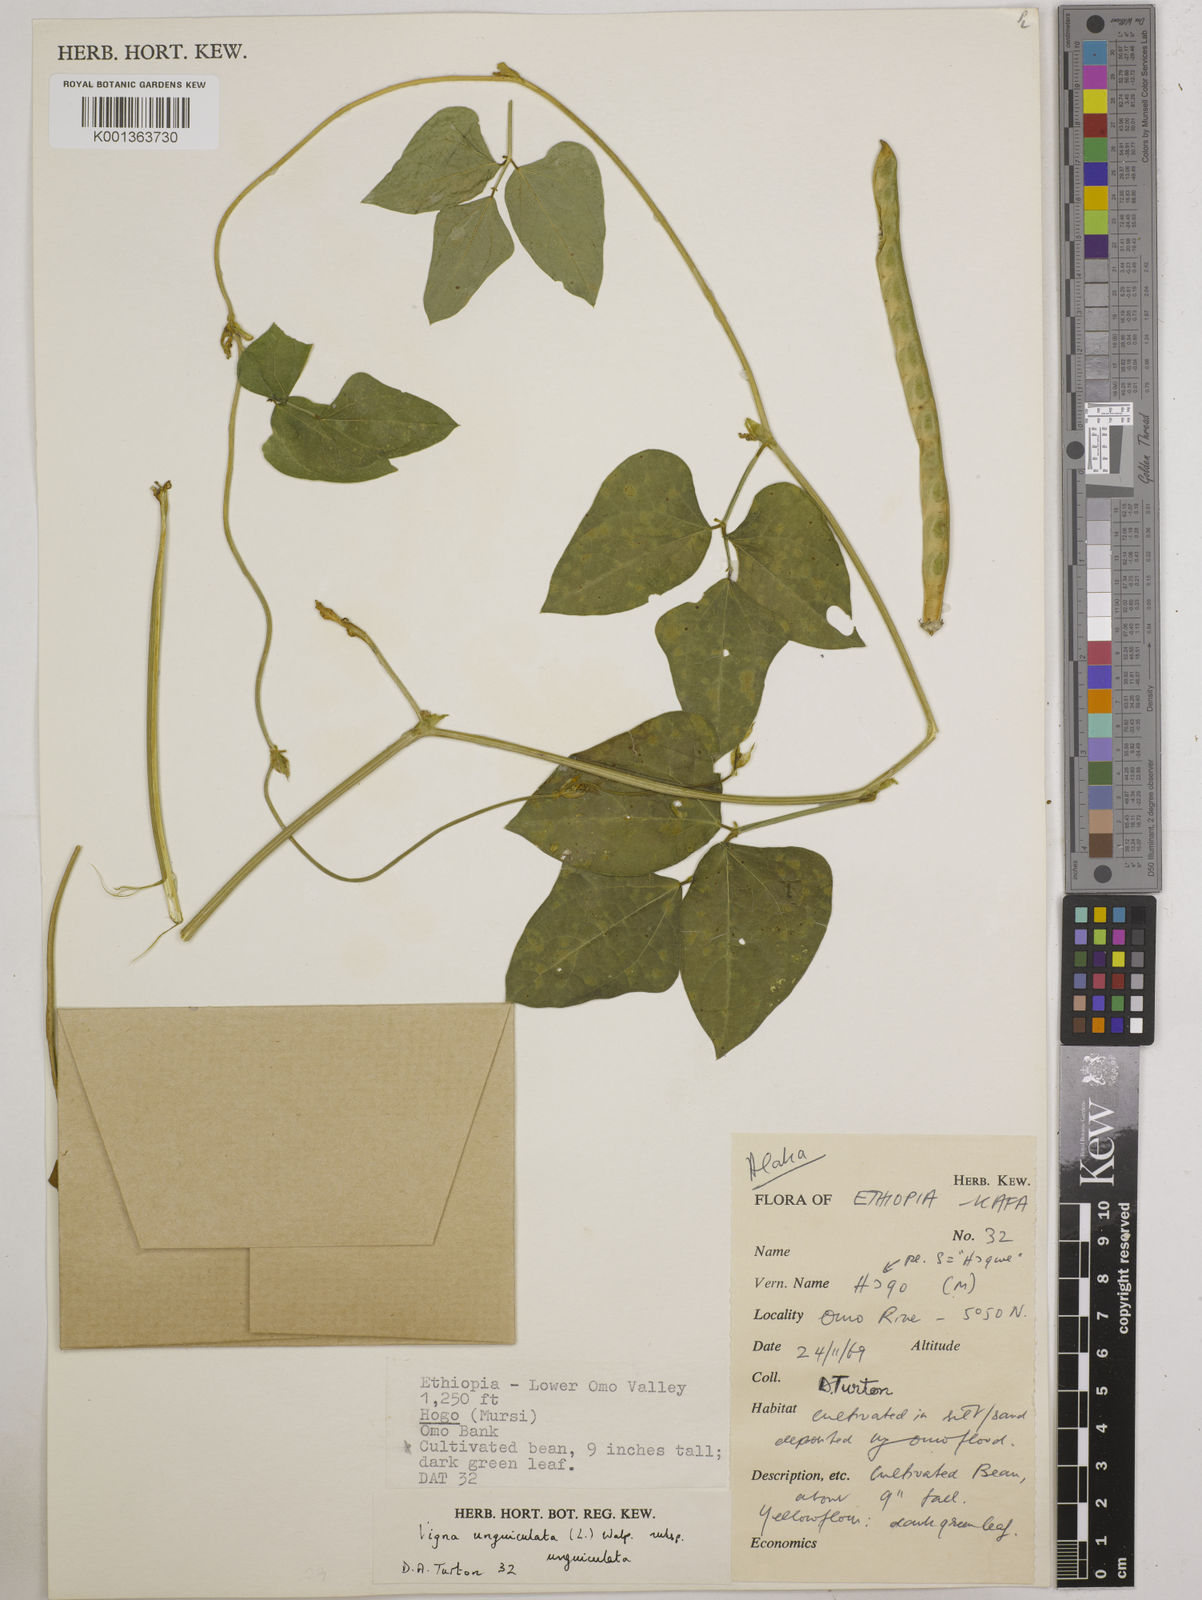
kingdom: Plantae
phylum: Tracheophyta
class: Magnoliopsida
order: Fabales
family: Fabaceae
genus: Vigna
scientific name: Vigna unguiculata
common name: Cowpea
